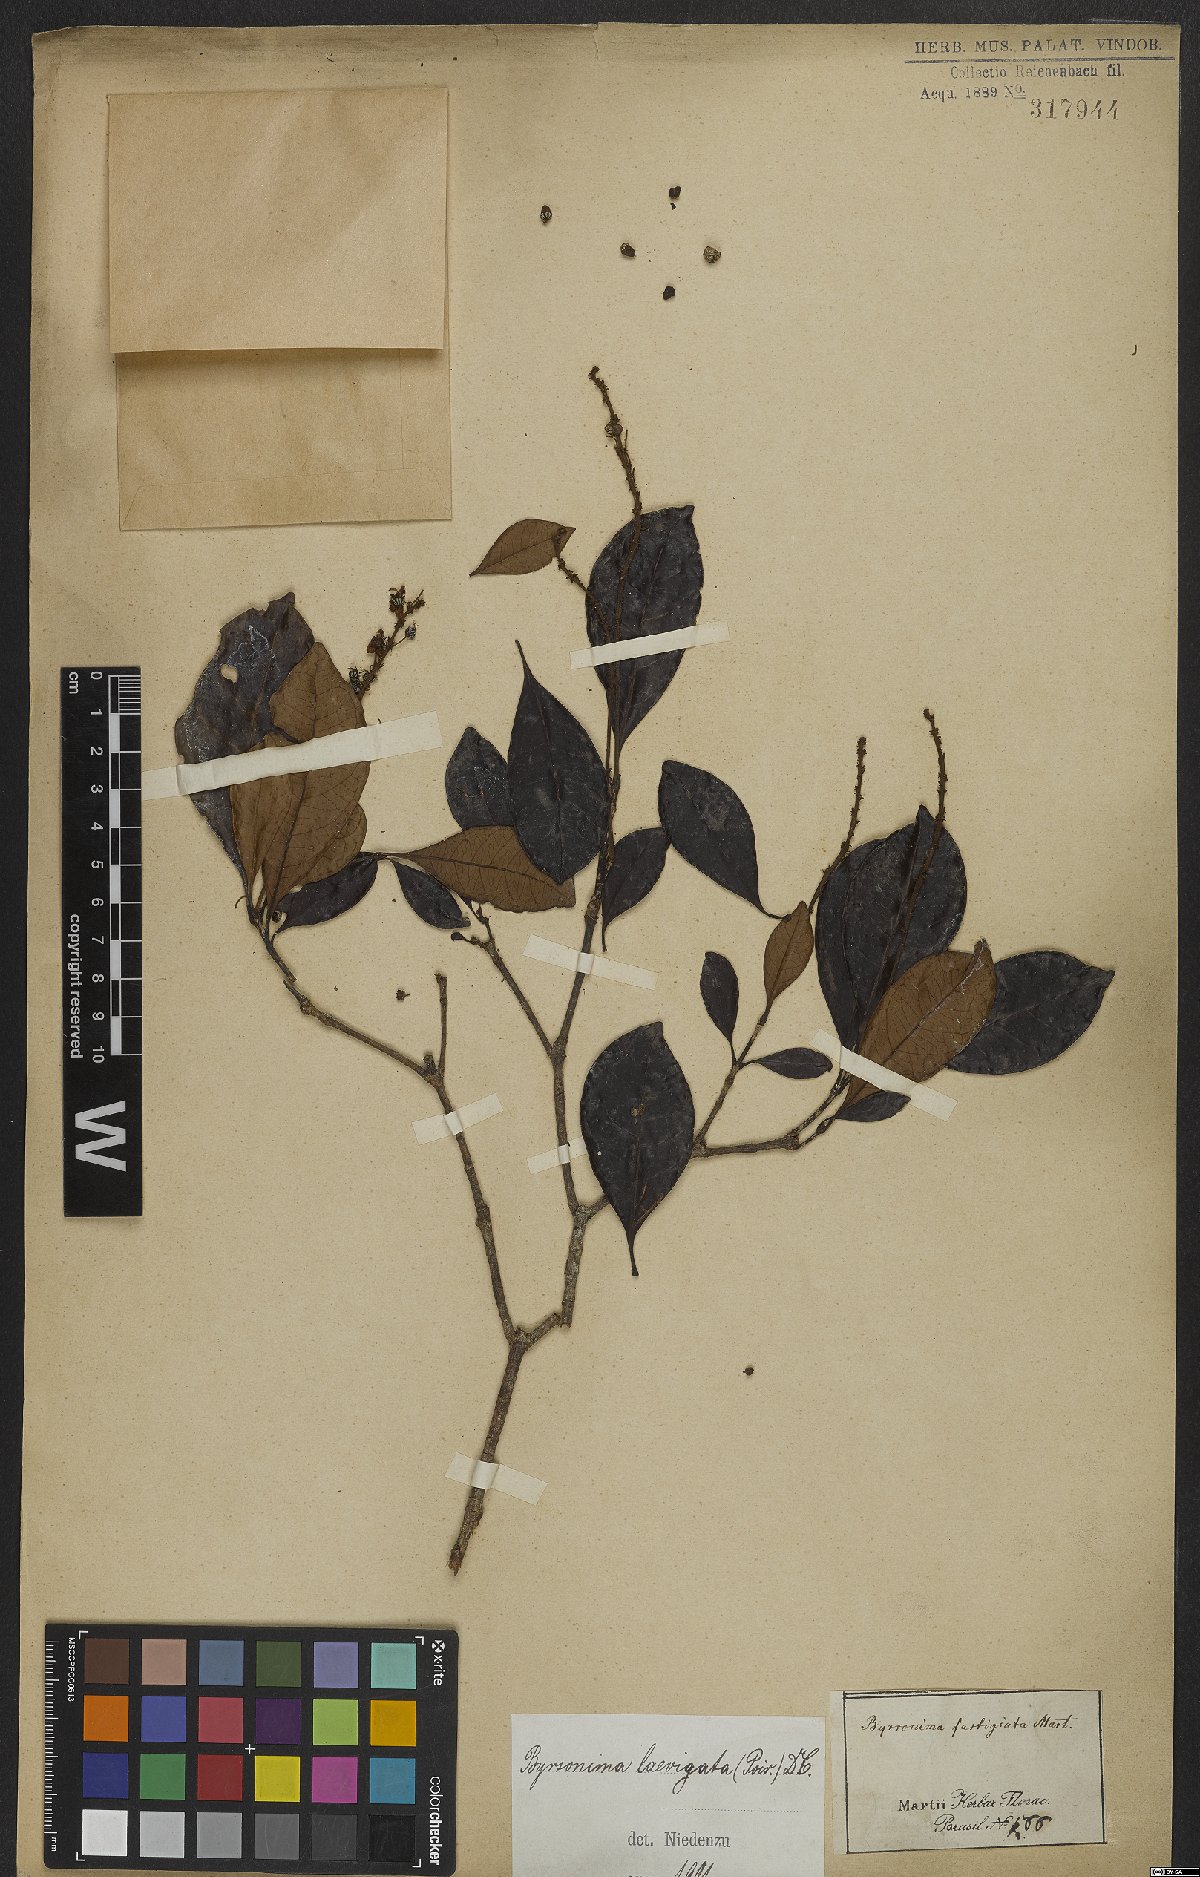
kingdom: Plantae
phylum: Tracheophyta
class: Magnoliopsida
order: Malpighiales
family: Malpighiaceae
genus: Byrsonima
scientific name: Byrsonima laevigata
